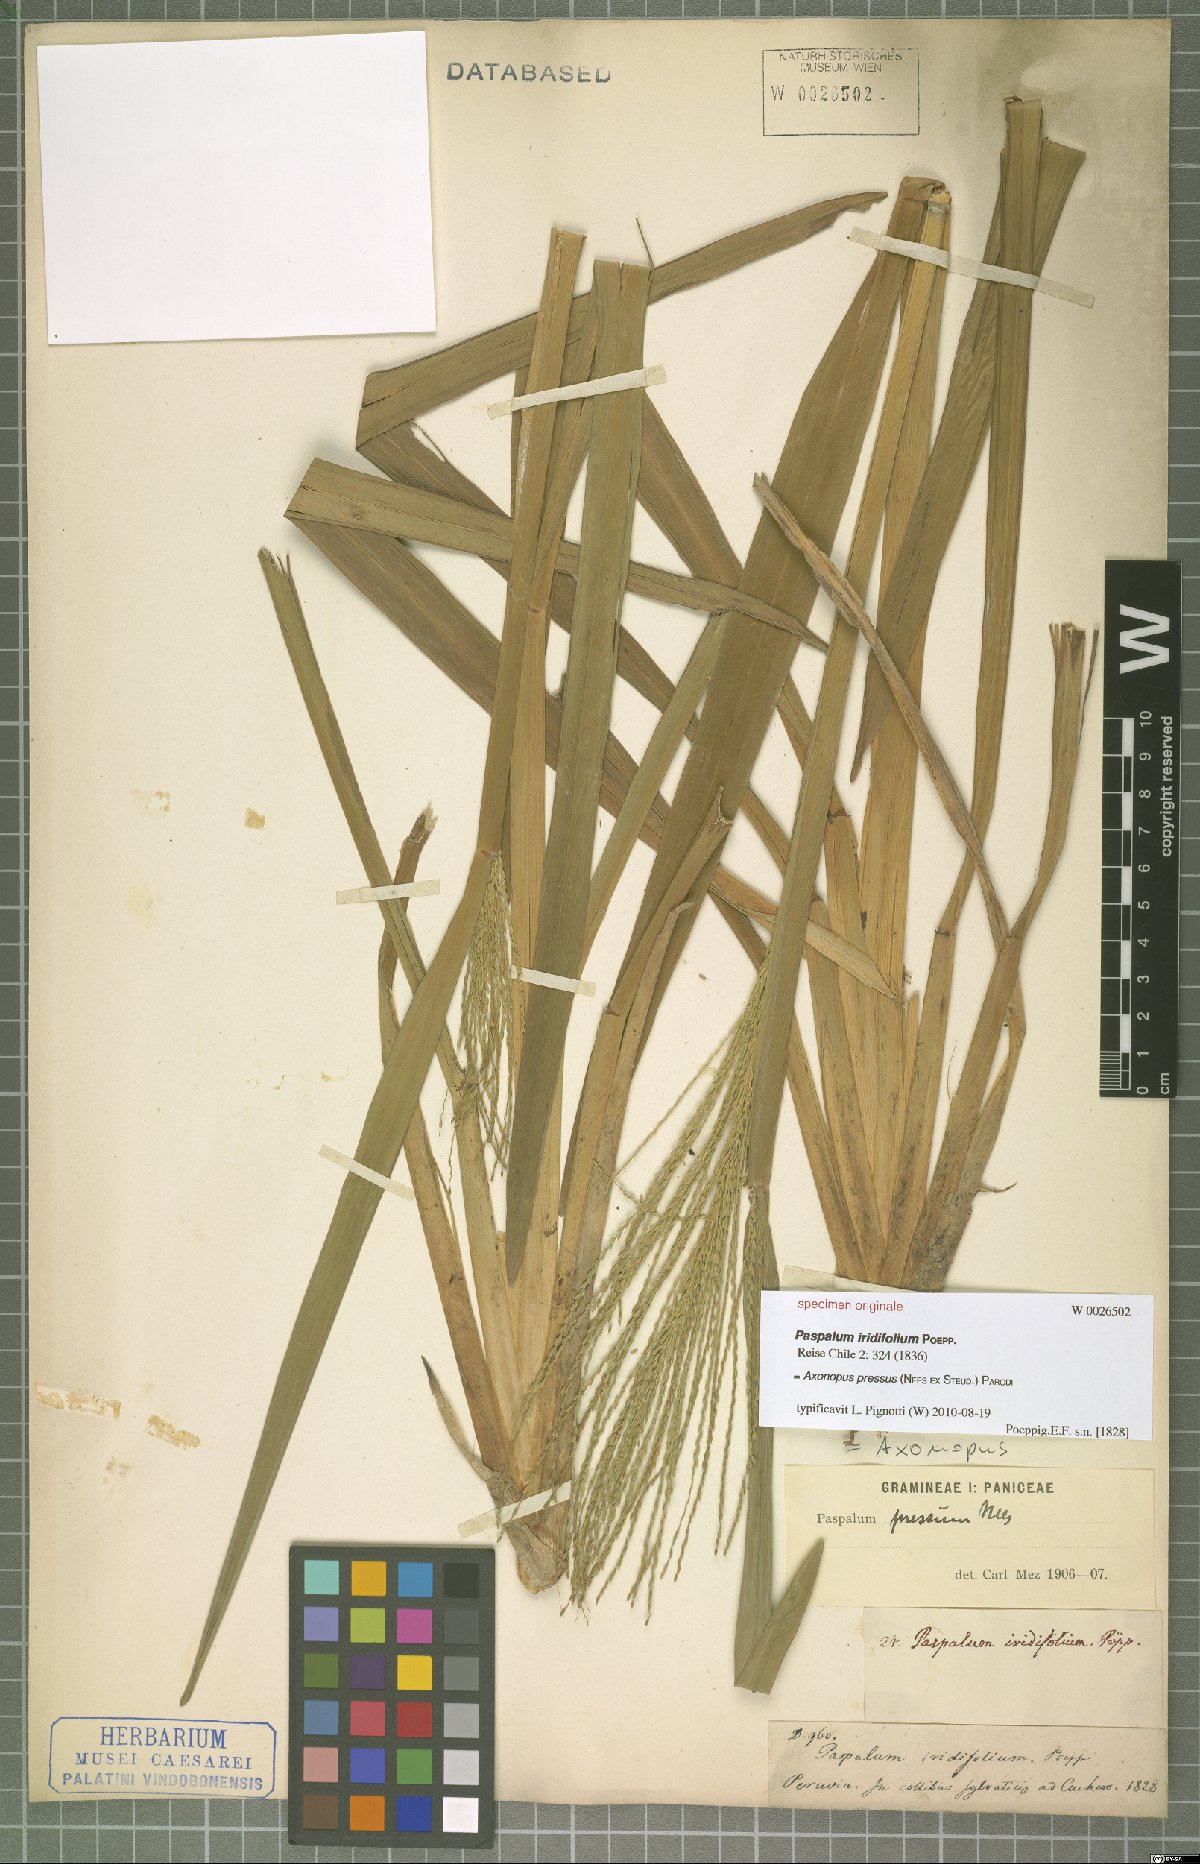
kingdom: Plantae
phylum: Tracheophyta
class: Liliopsida
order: Poales
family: Poaceae
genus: Axonopus
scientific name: Axonopus pressus
